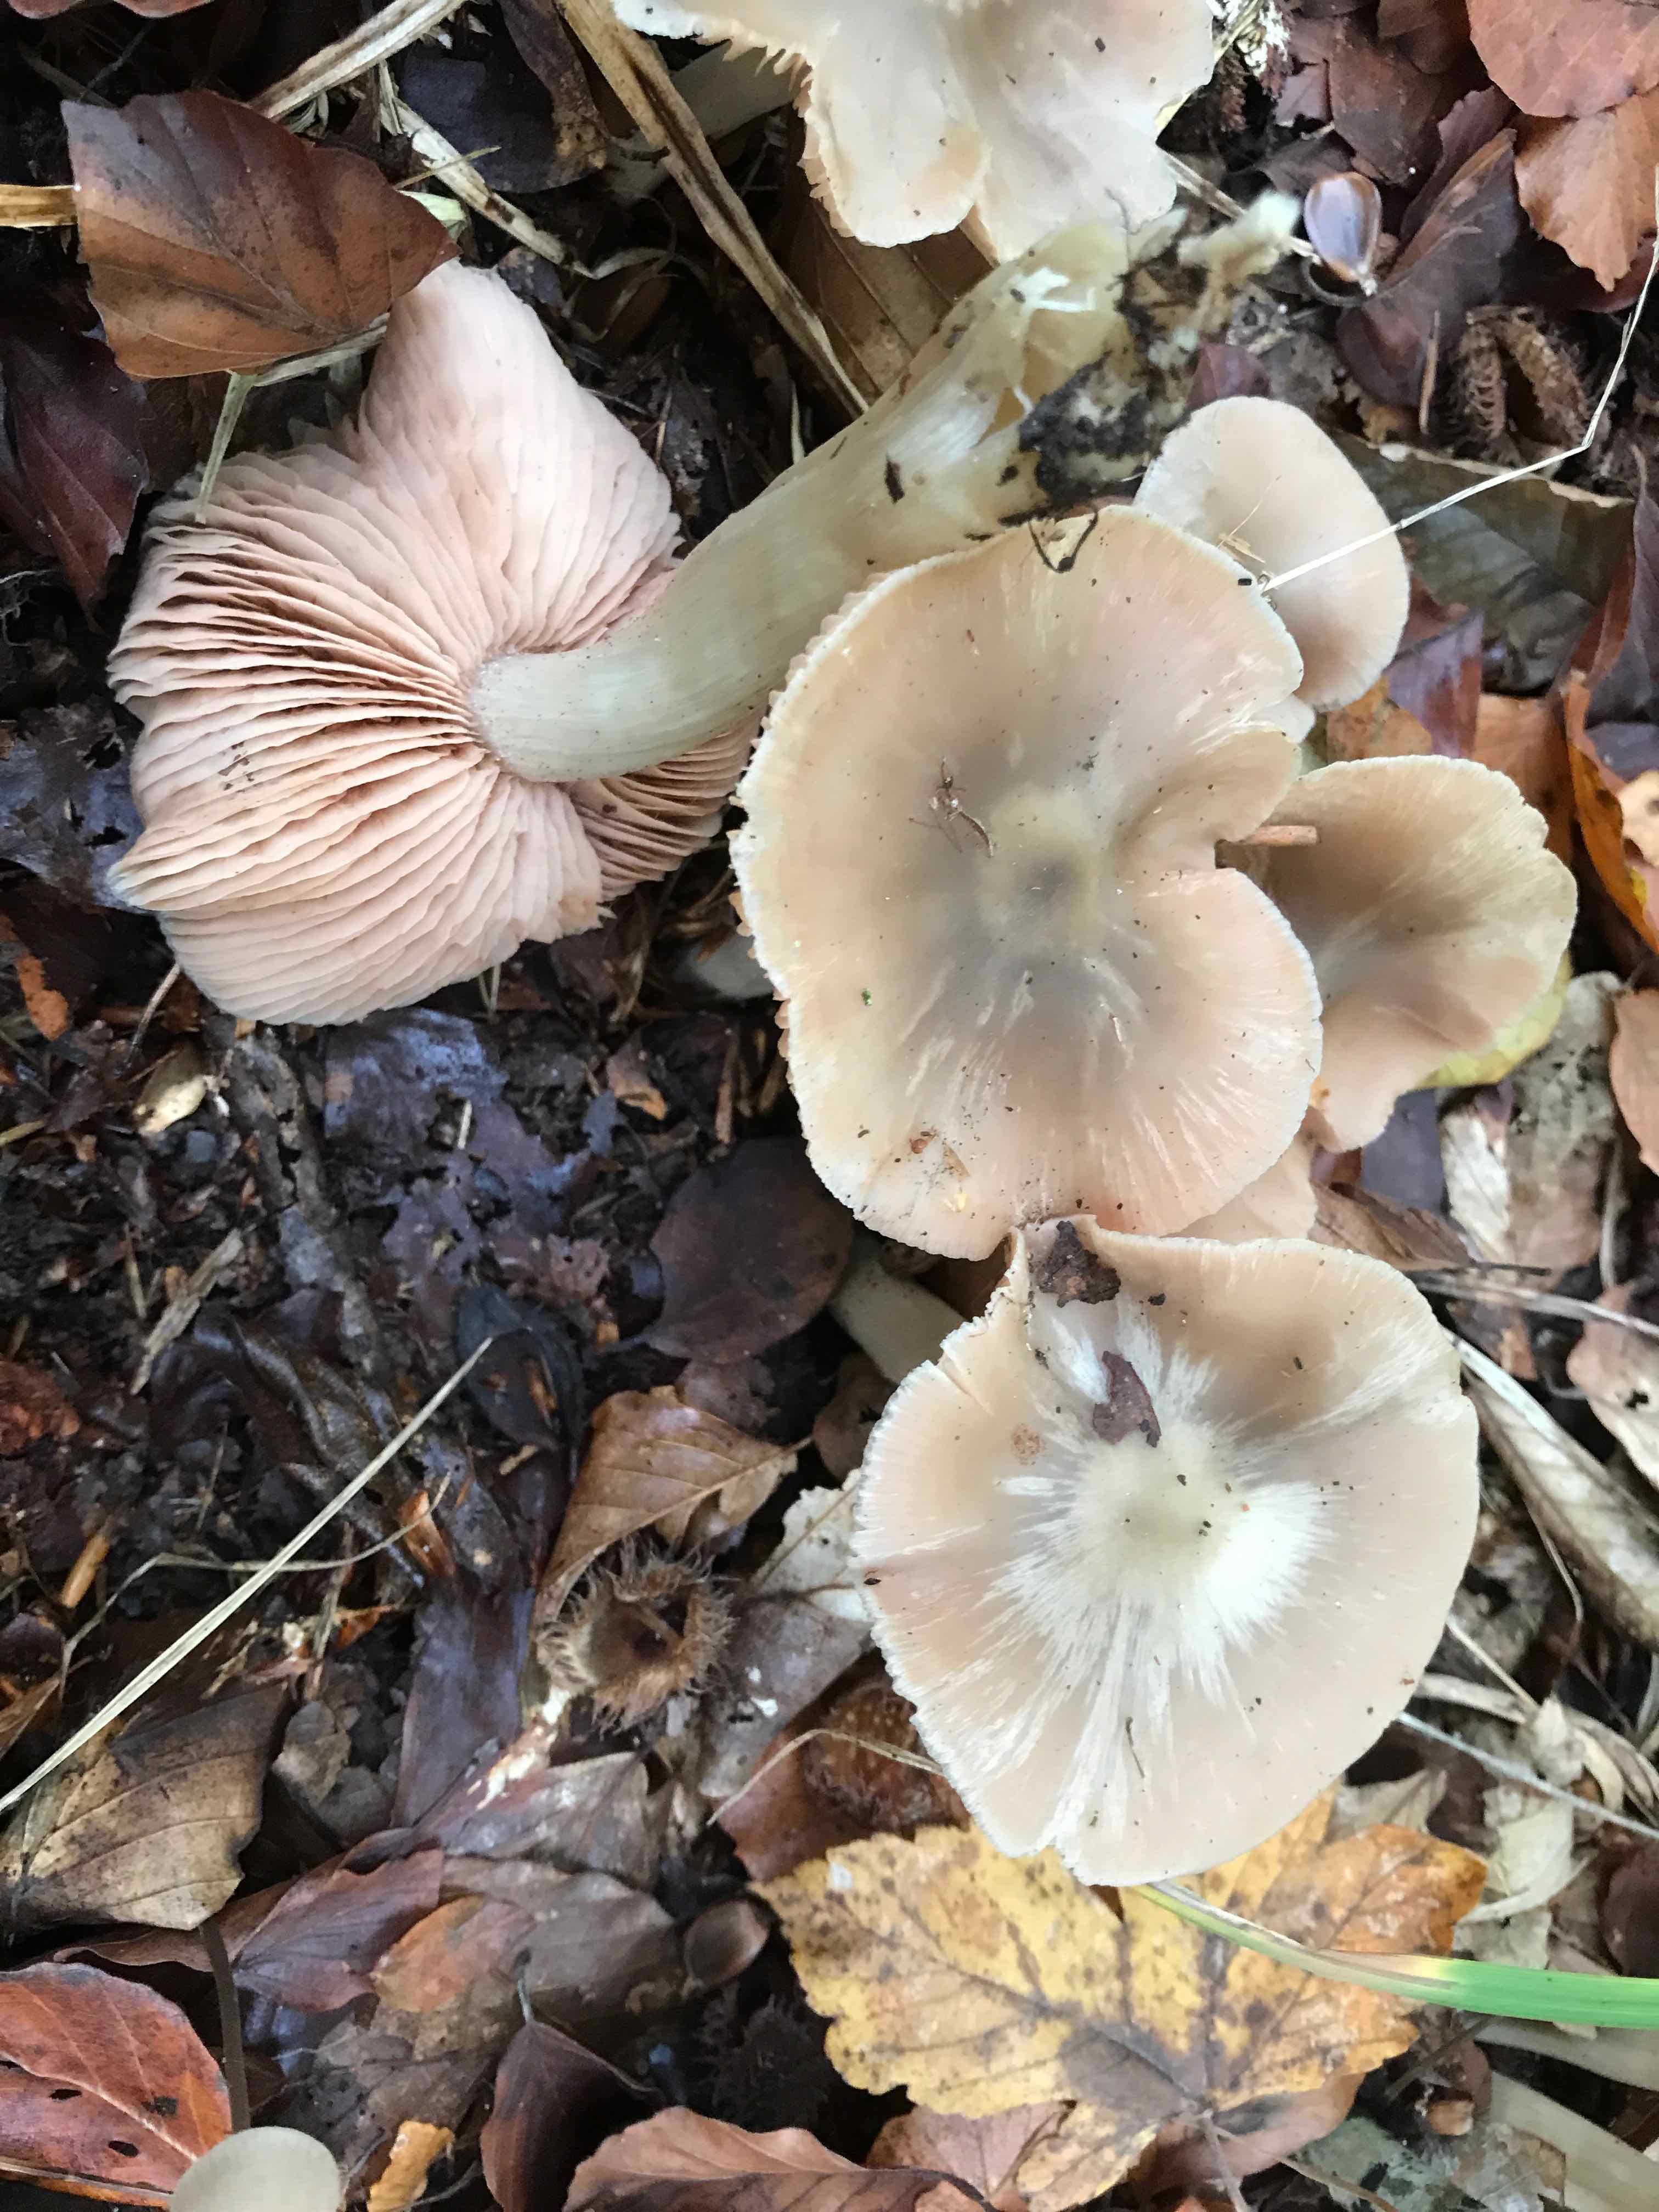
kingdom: Fungi
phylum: Basidiomycota
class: Agaricomycetes
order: Agaricales
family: Entolomataceae
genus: Entoloma
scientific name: Entoloma rhodopolium
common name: skov-rødblad
